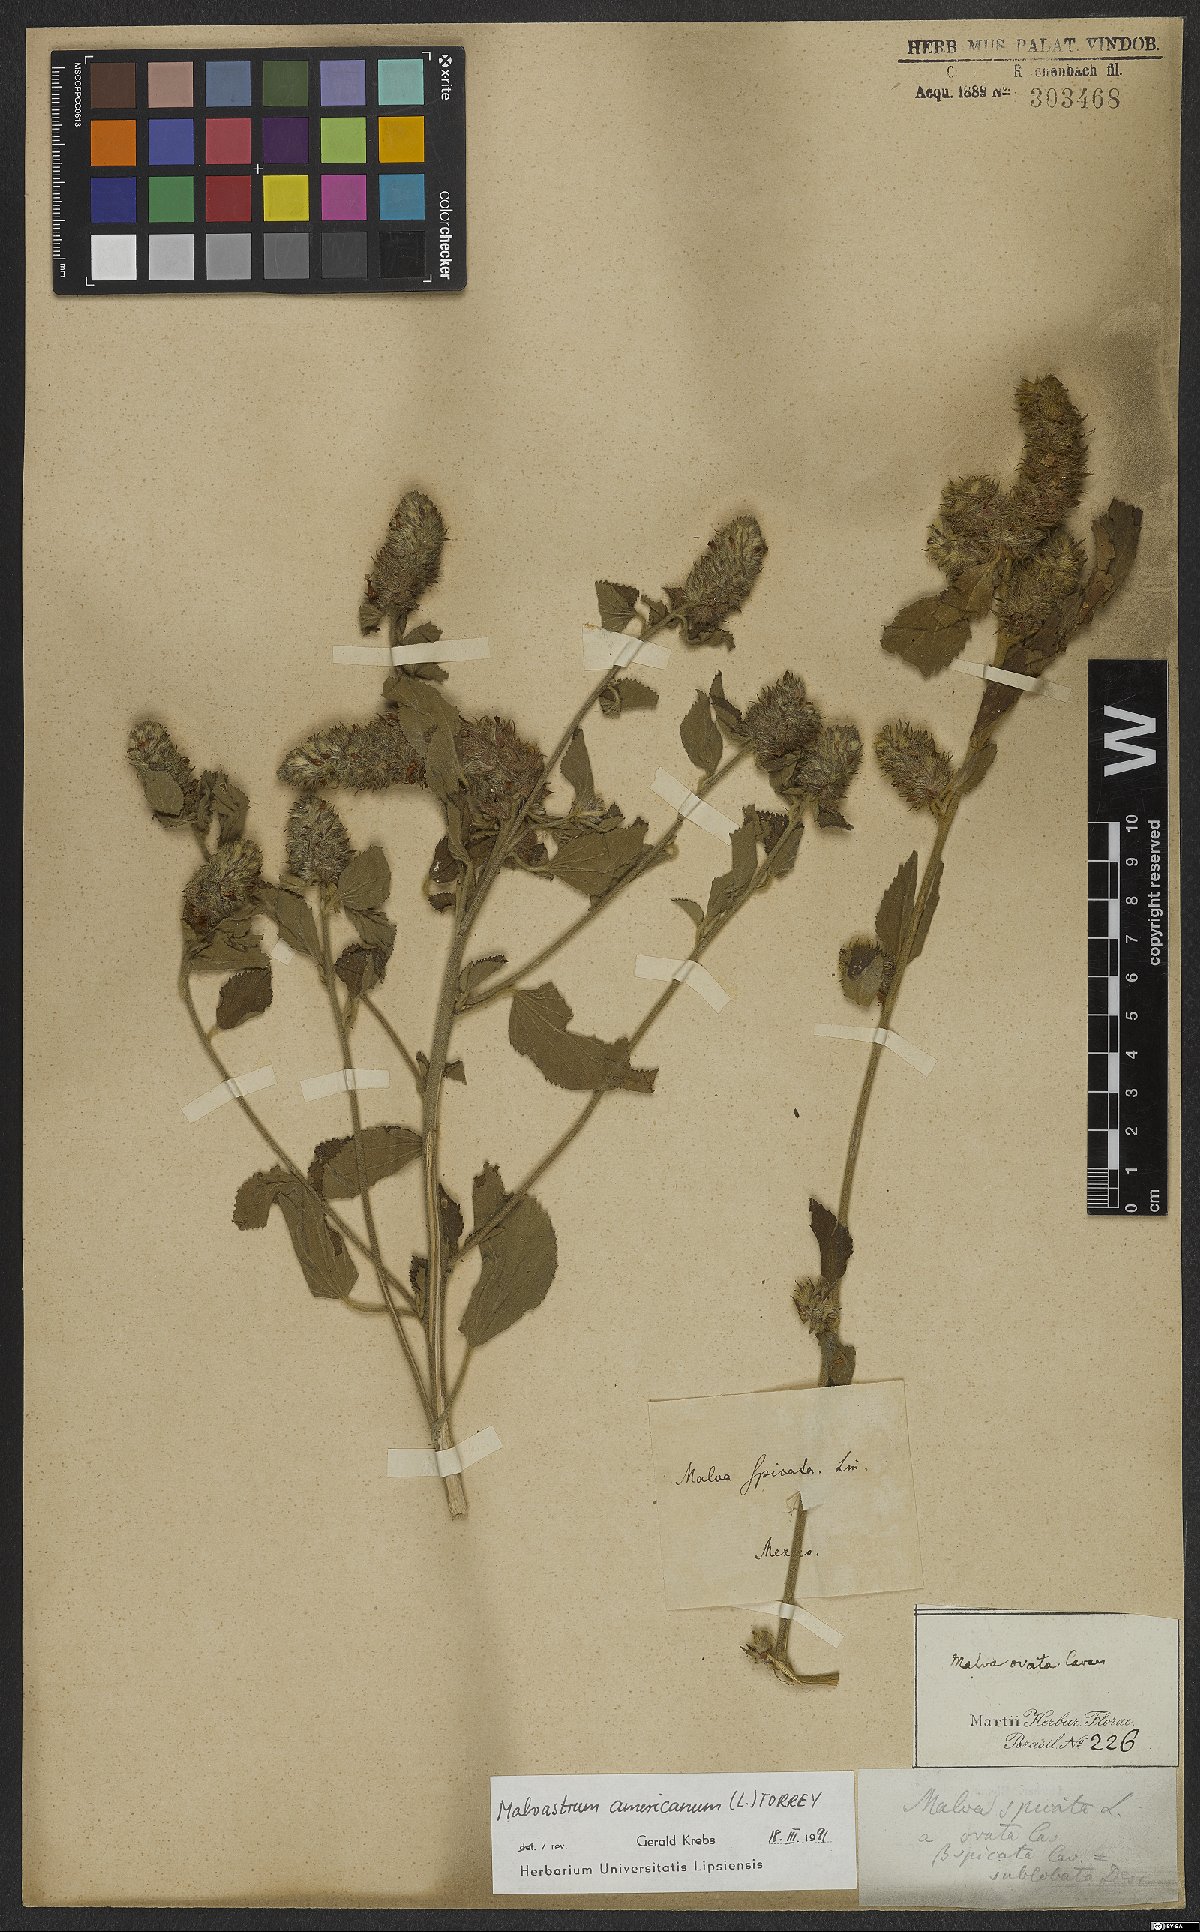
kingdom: Plantae
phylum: Tracheophyta
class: Magnoliopsida
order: Malvales
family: Malvaceae
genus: Malvastrum
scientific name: Malvastrum americanum
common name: Spiked malvastrum
